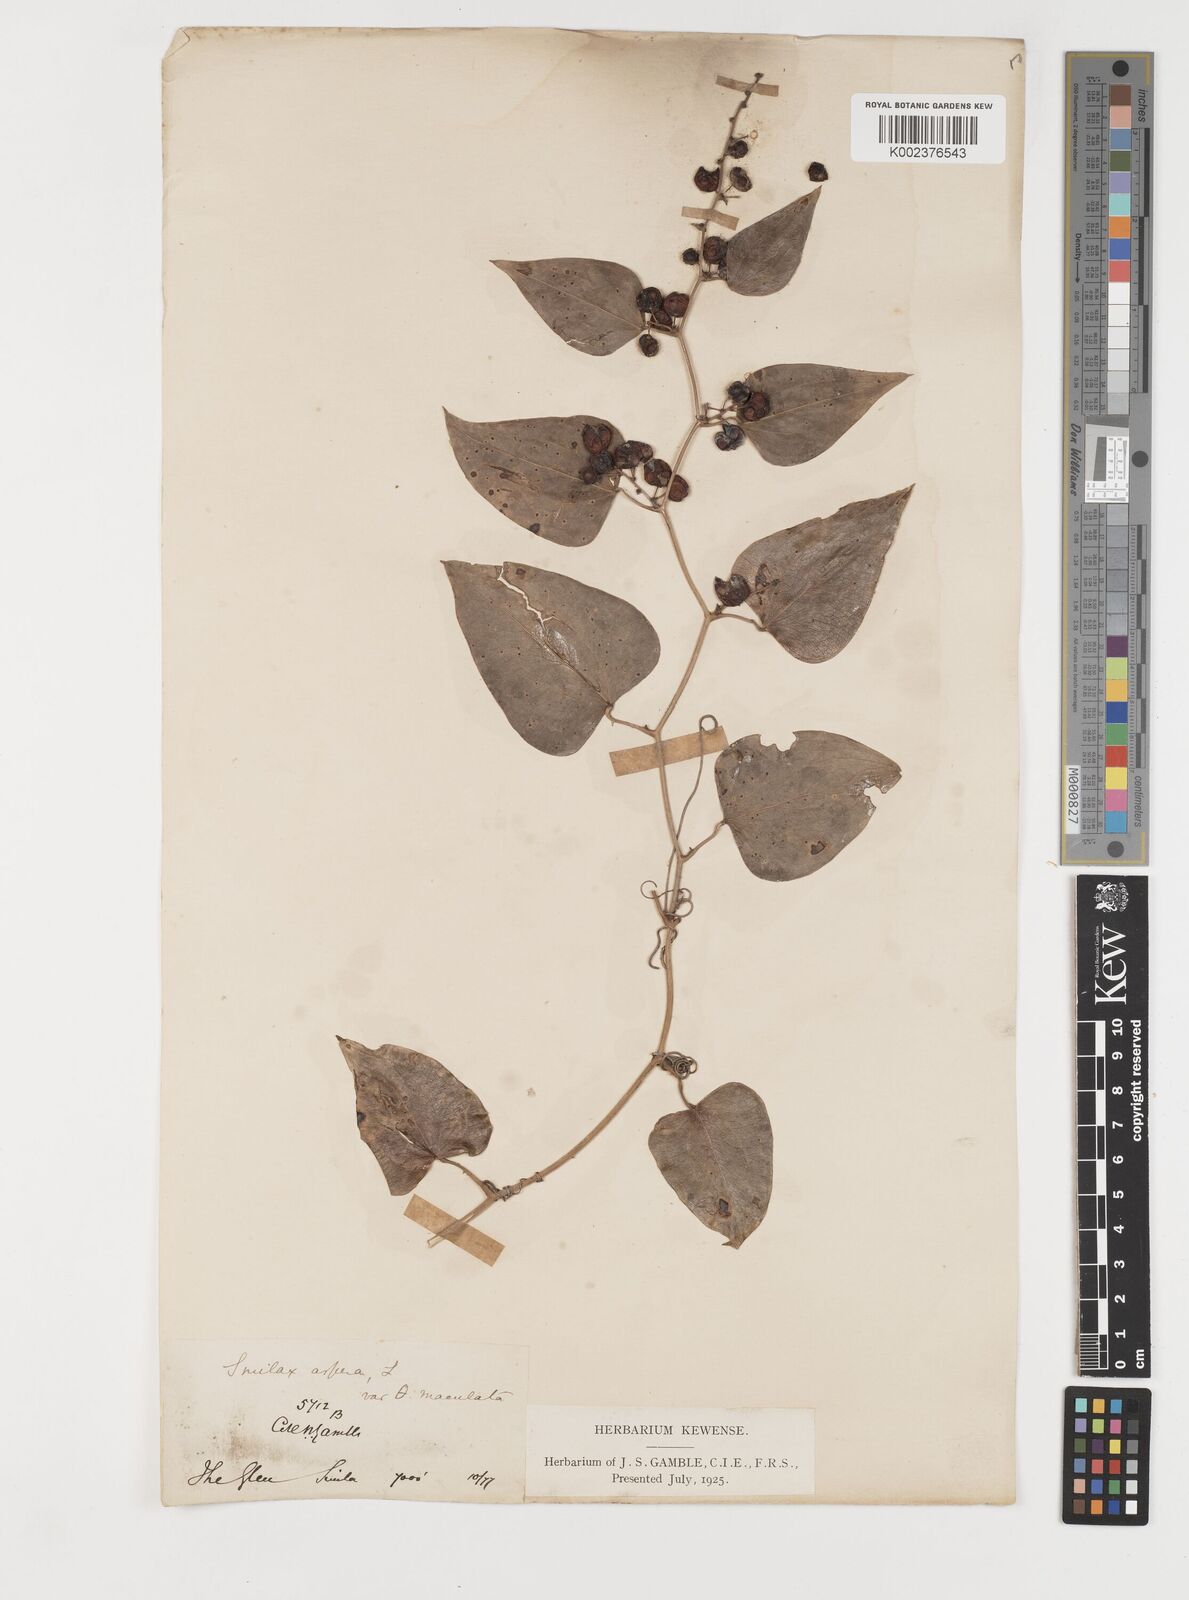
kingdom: Plantae
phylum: Tracheophyta
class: Liliopsida
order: Liliales
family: Smilacaceae
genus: Smilax
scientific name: Smilax aspera
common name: Common smilax
